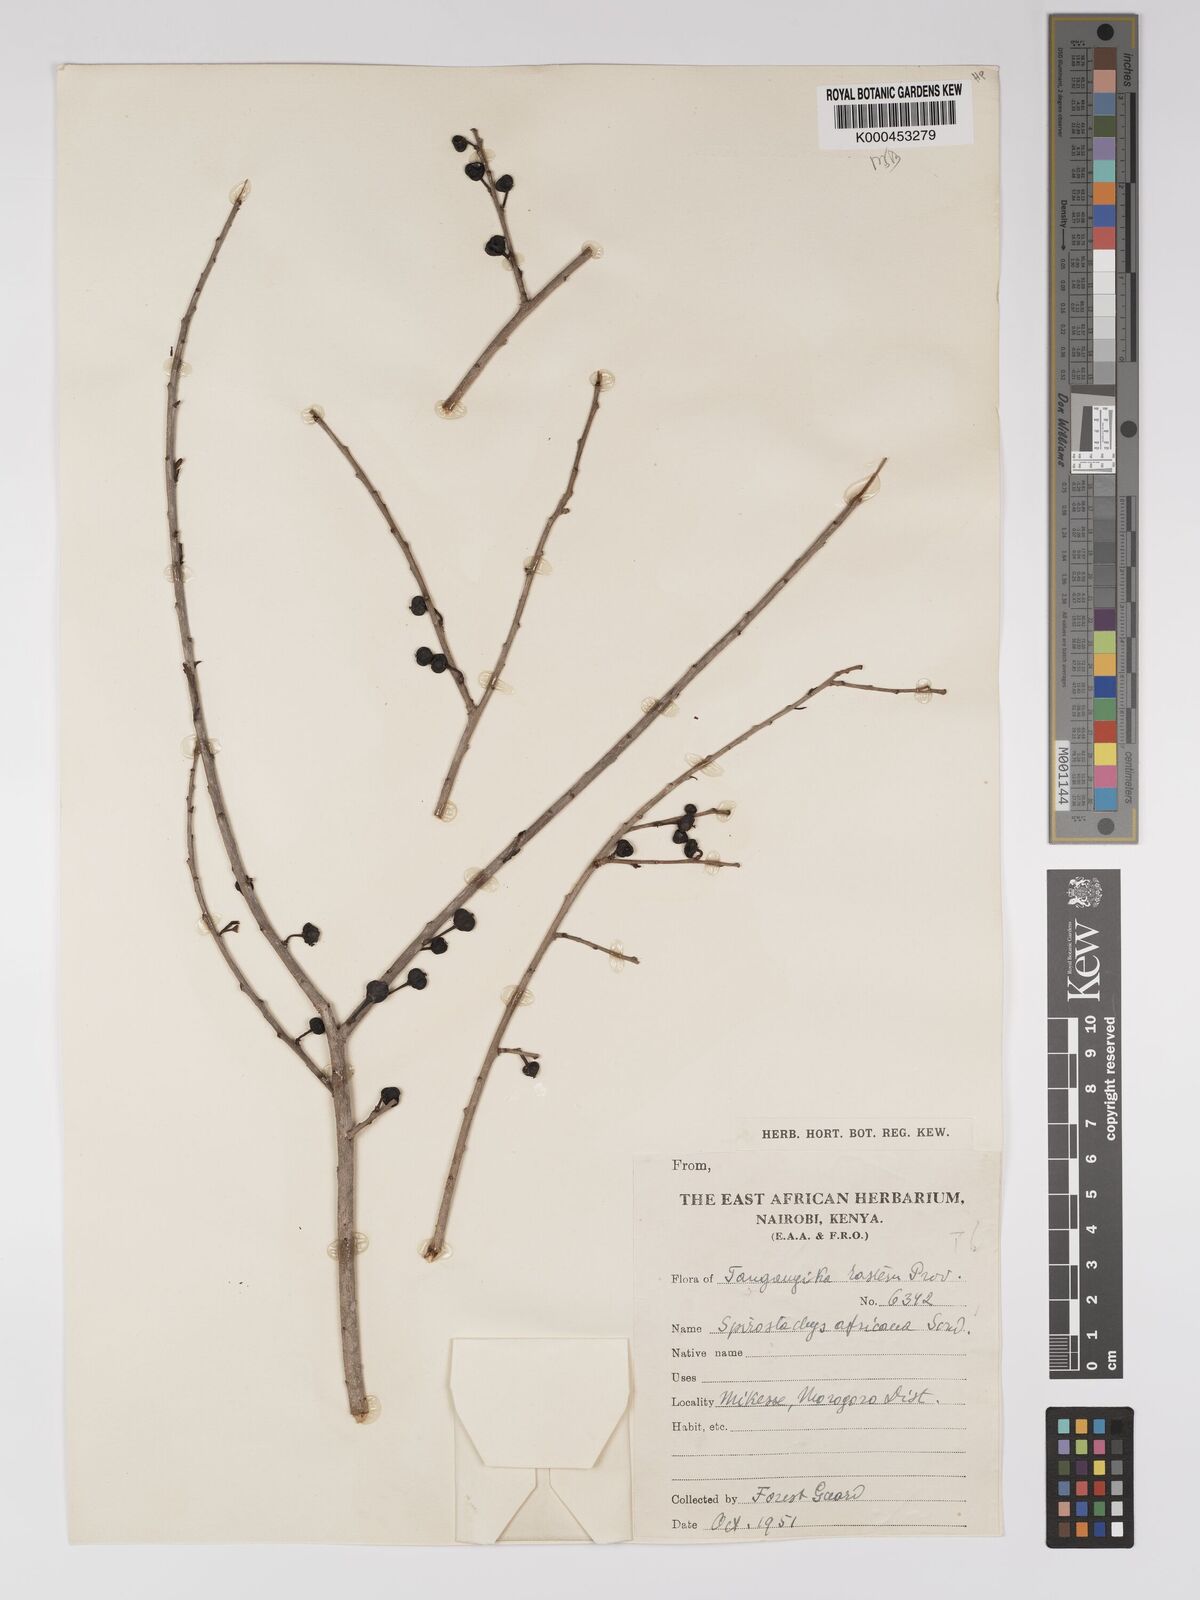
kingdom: Plantae
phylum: Tracheophyta
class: Magnoliopsida
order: Malpighiales
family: Euphorbiaceae
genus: Spirostachys
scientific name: Spirostachys africana
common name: Tamboti
